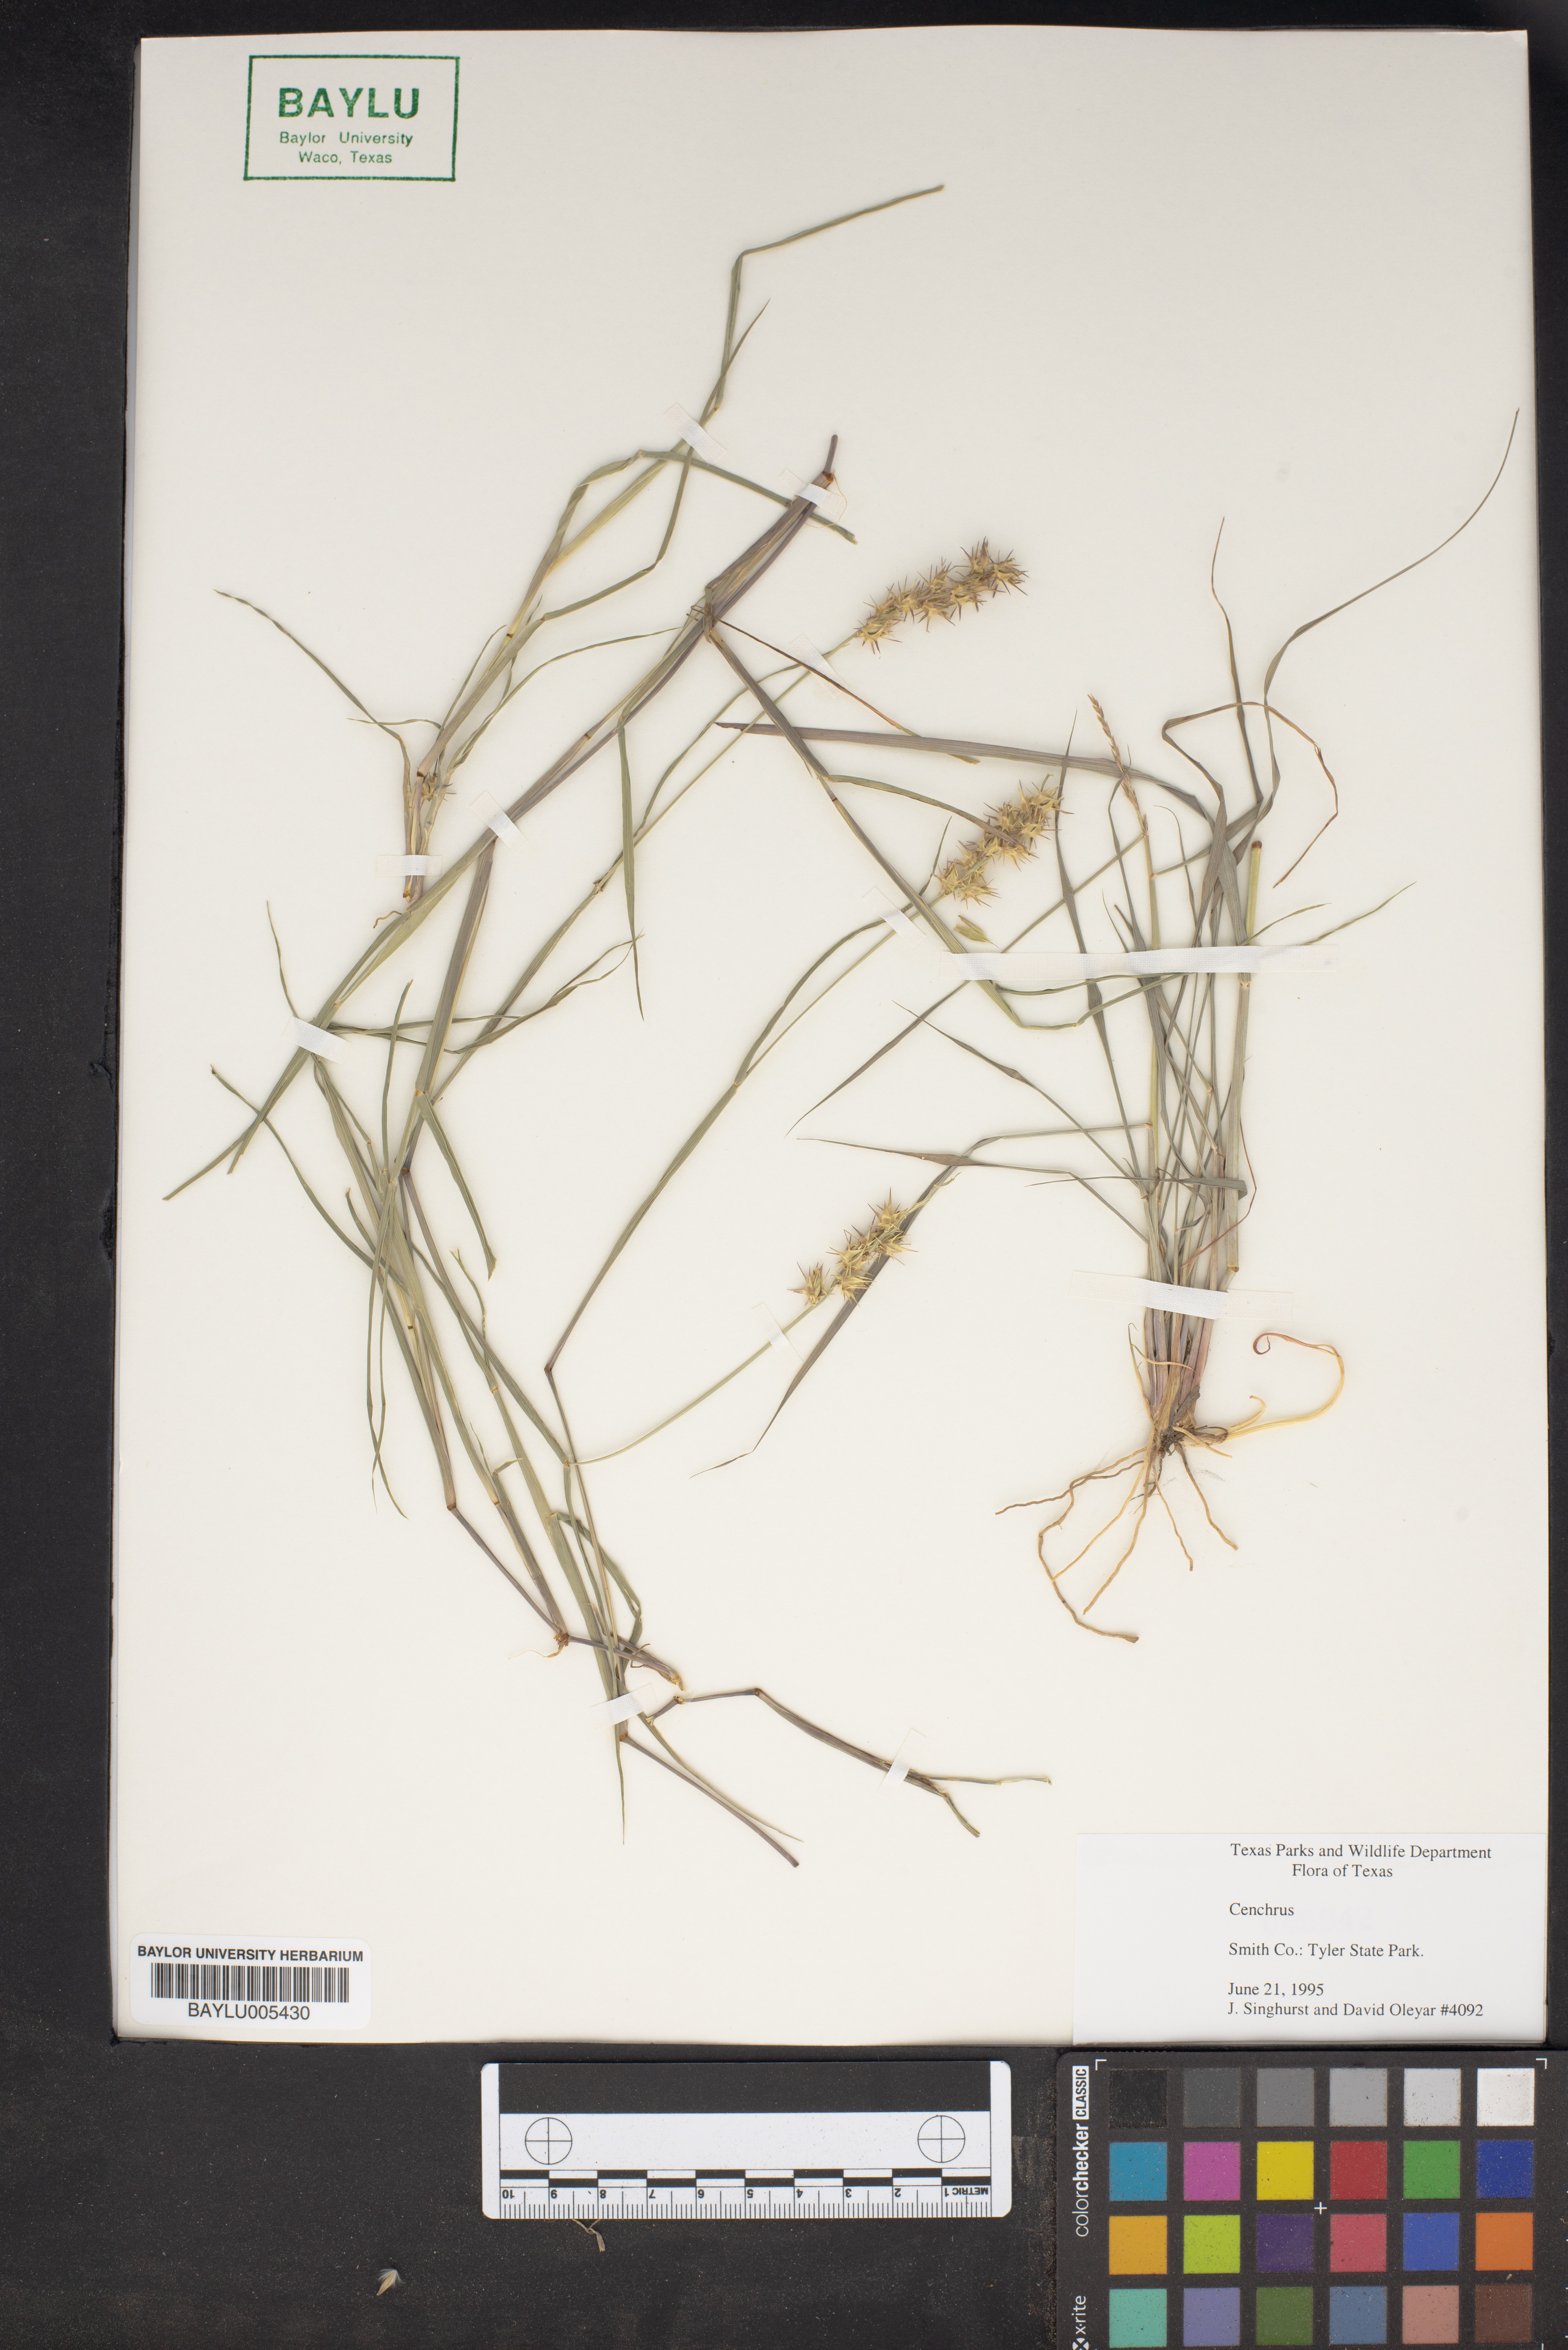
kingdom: Plantae
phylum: Tracheophyta
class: Liliopsida
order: Poales
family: Poaceae
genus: Cenchrus
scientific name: Cenchrus
